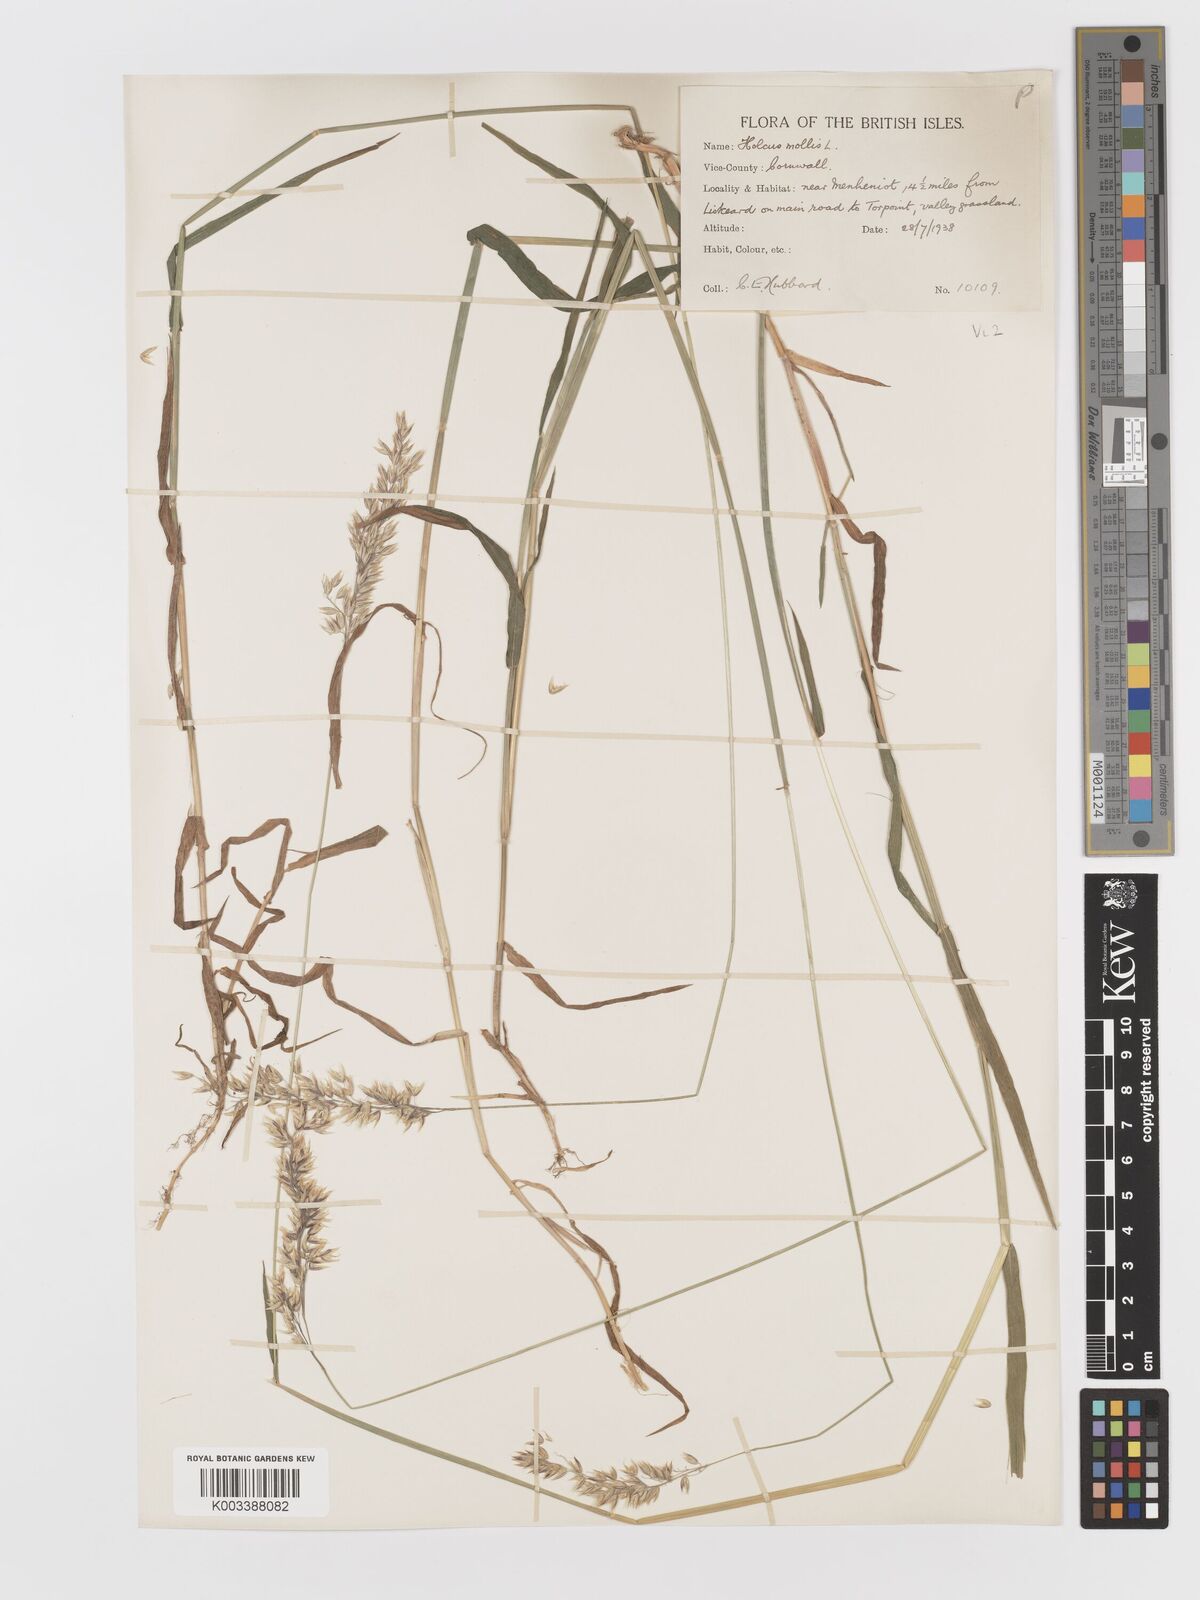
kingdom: Plantae
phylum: Tracheophyta
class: Liliopsida
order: Poales
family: Poaceae
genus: Holcus
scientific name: Holcus mollis
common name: Creeping velvetgrass
